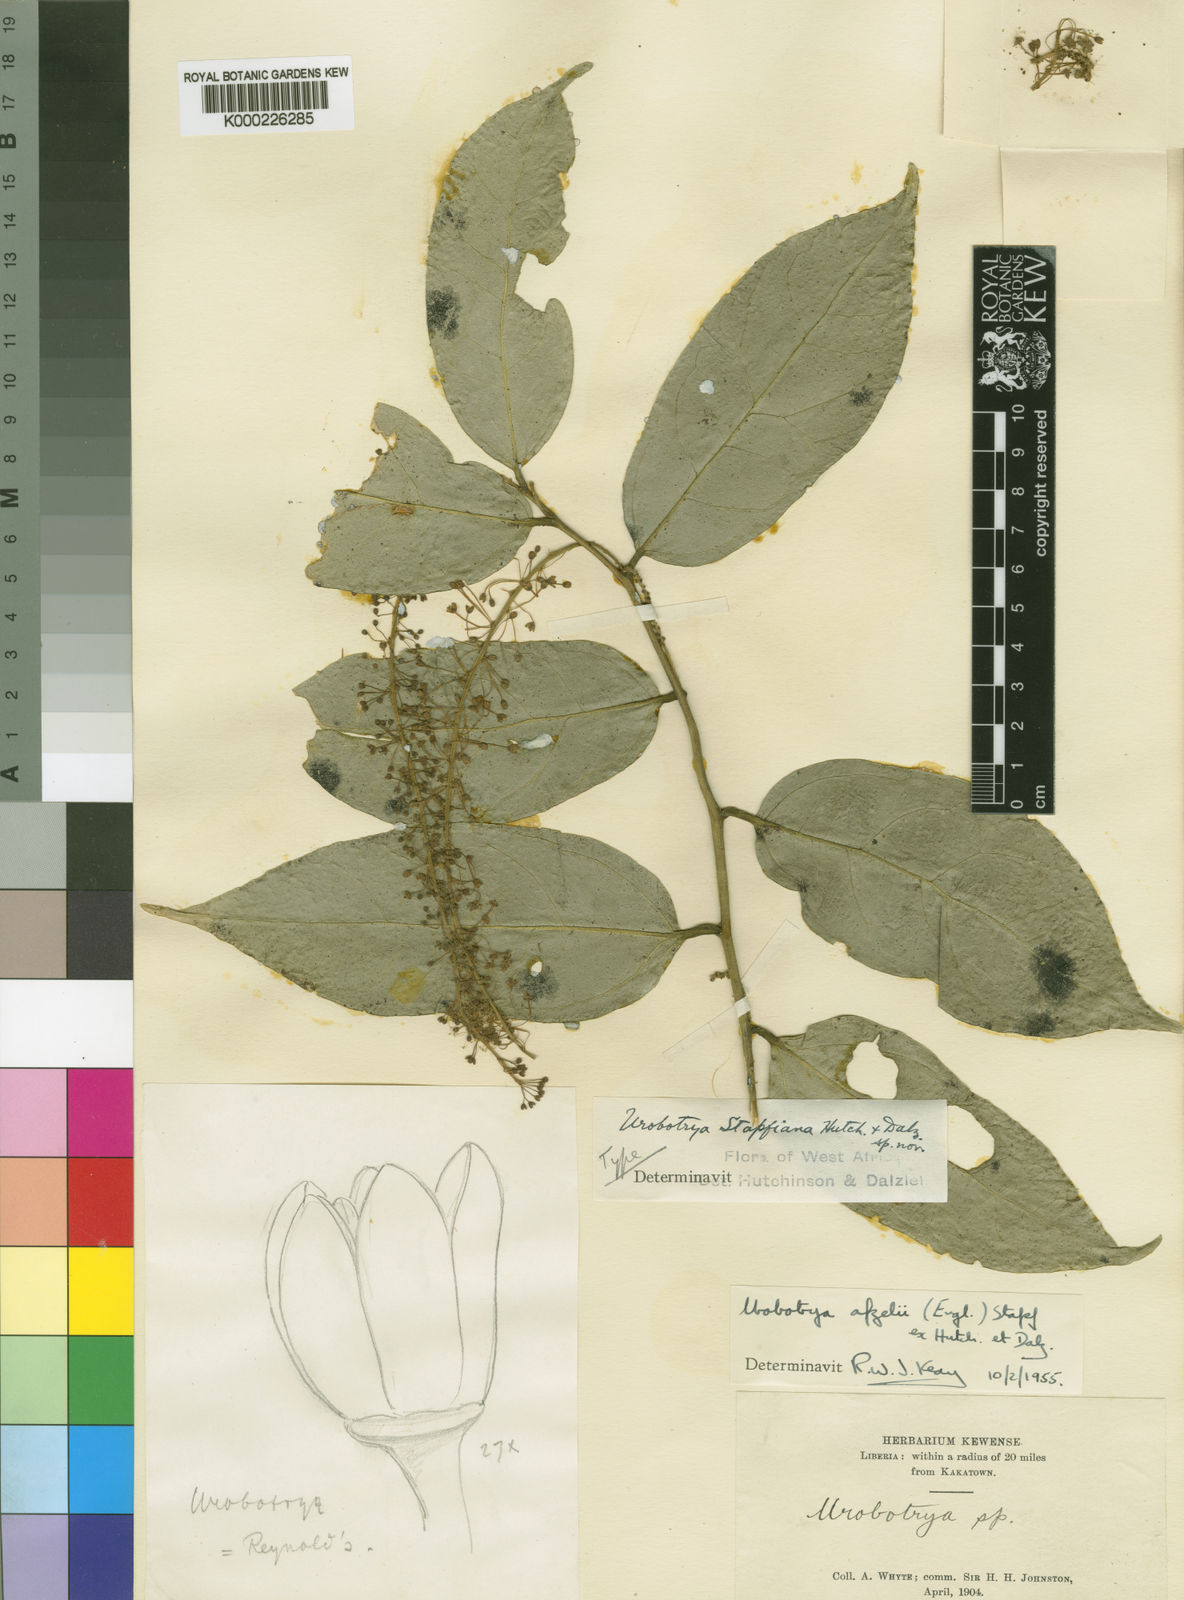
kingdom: Plantae
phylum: Tracheophyta
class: Magnoliopsida
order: Santalales
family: Opiliaceae
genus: Urobotrya
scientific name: Urobotrya congolana
